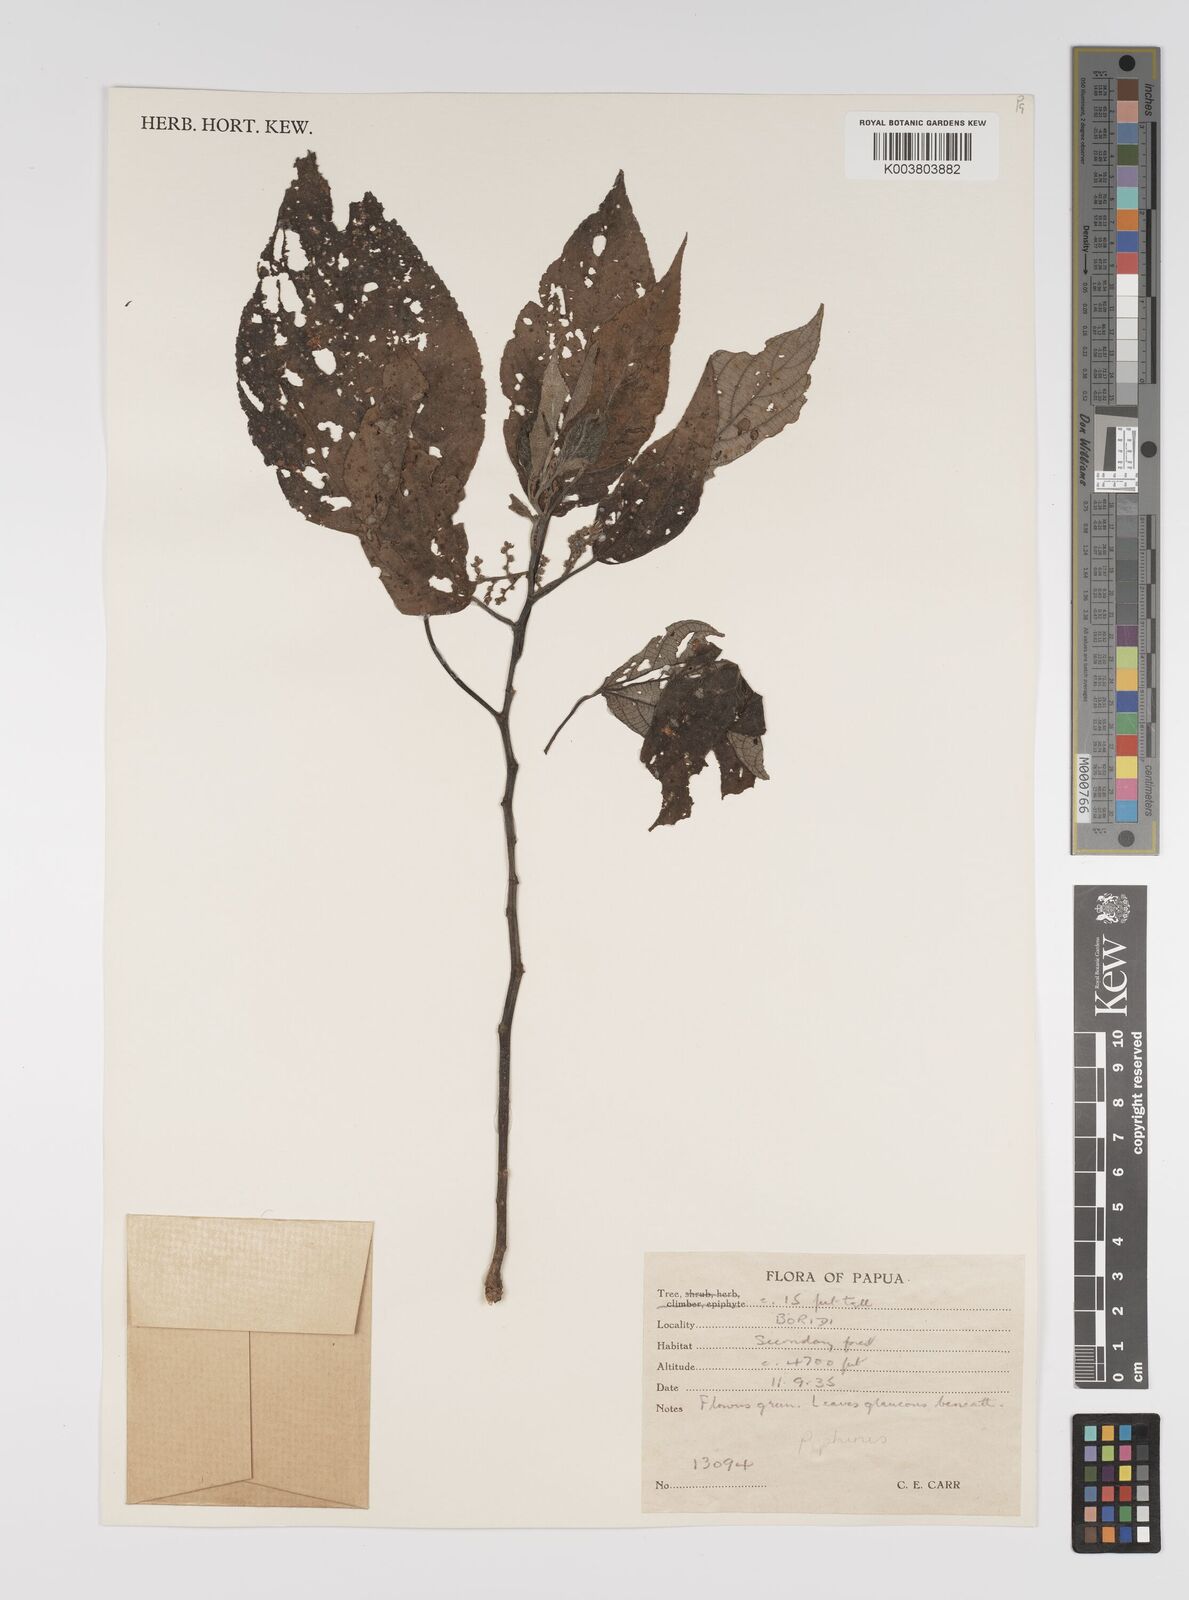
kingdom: Plantae
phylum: Tracheophyta
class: Magnoliopsida
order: Rosales
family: Urticaceae
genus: Pipturus
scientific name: Pipturus argenteus
